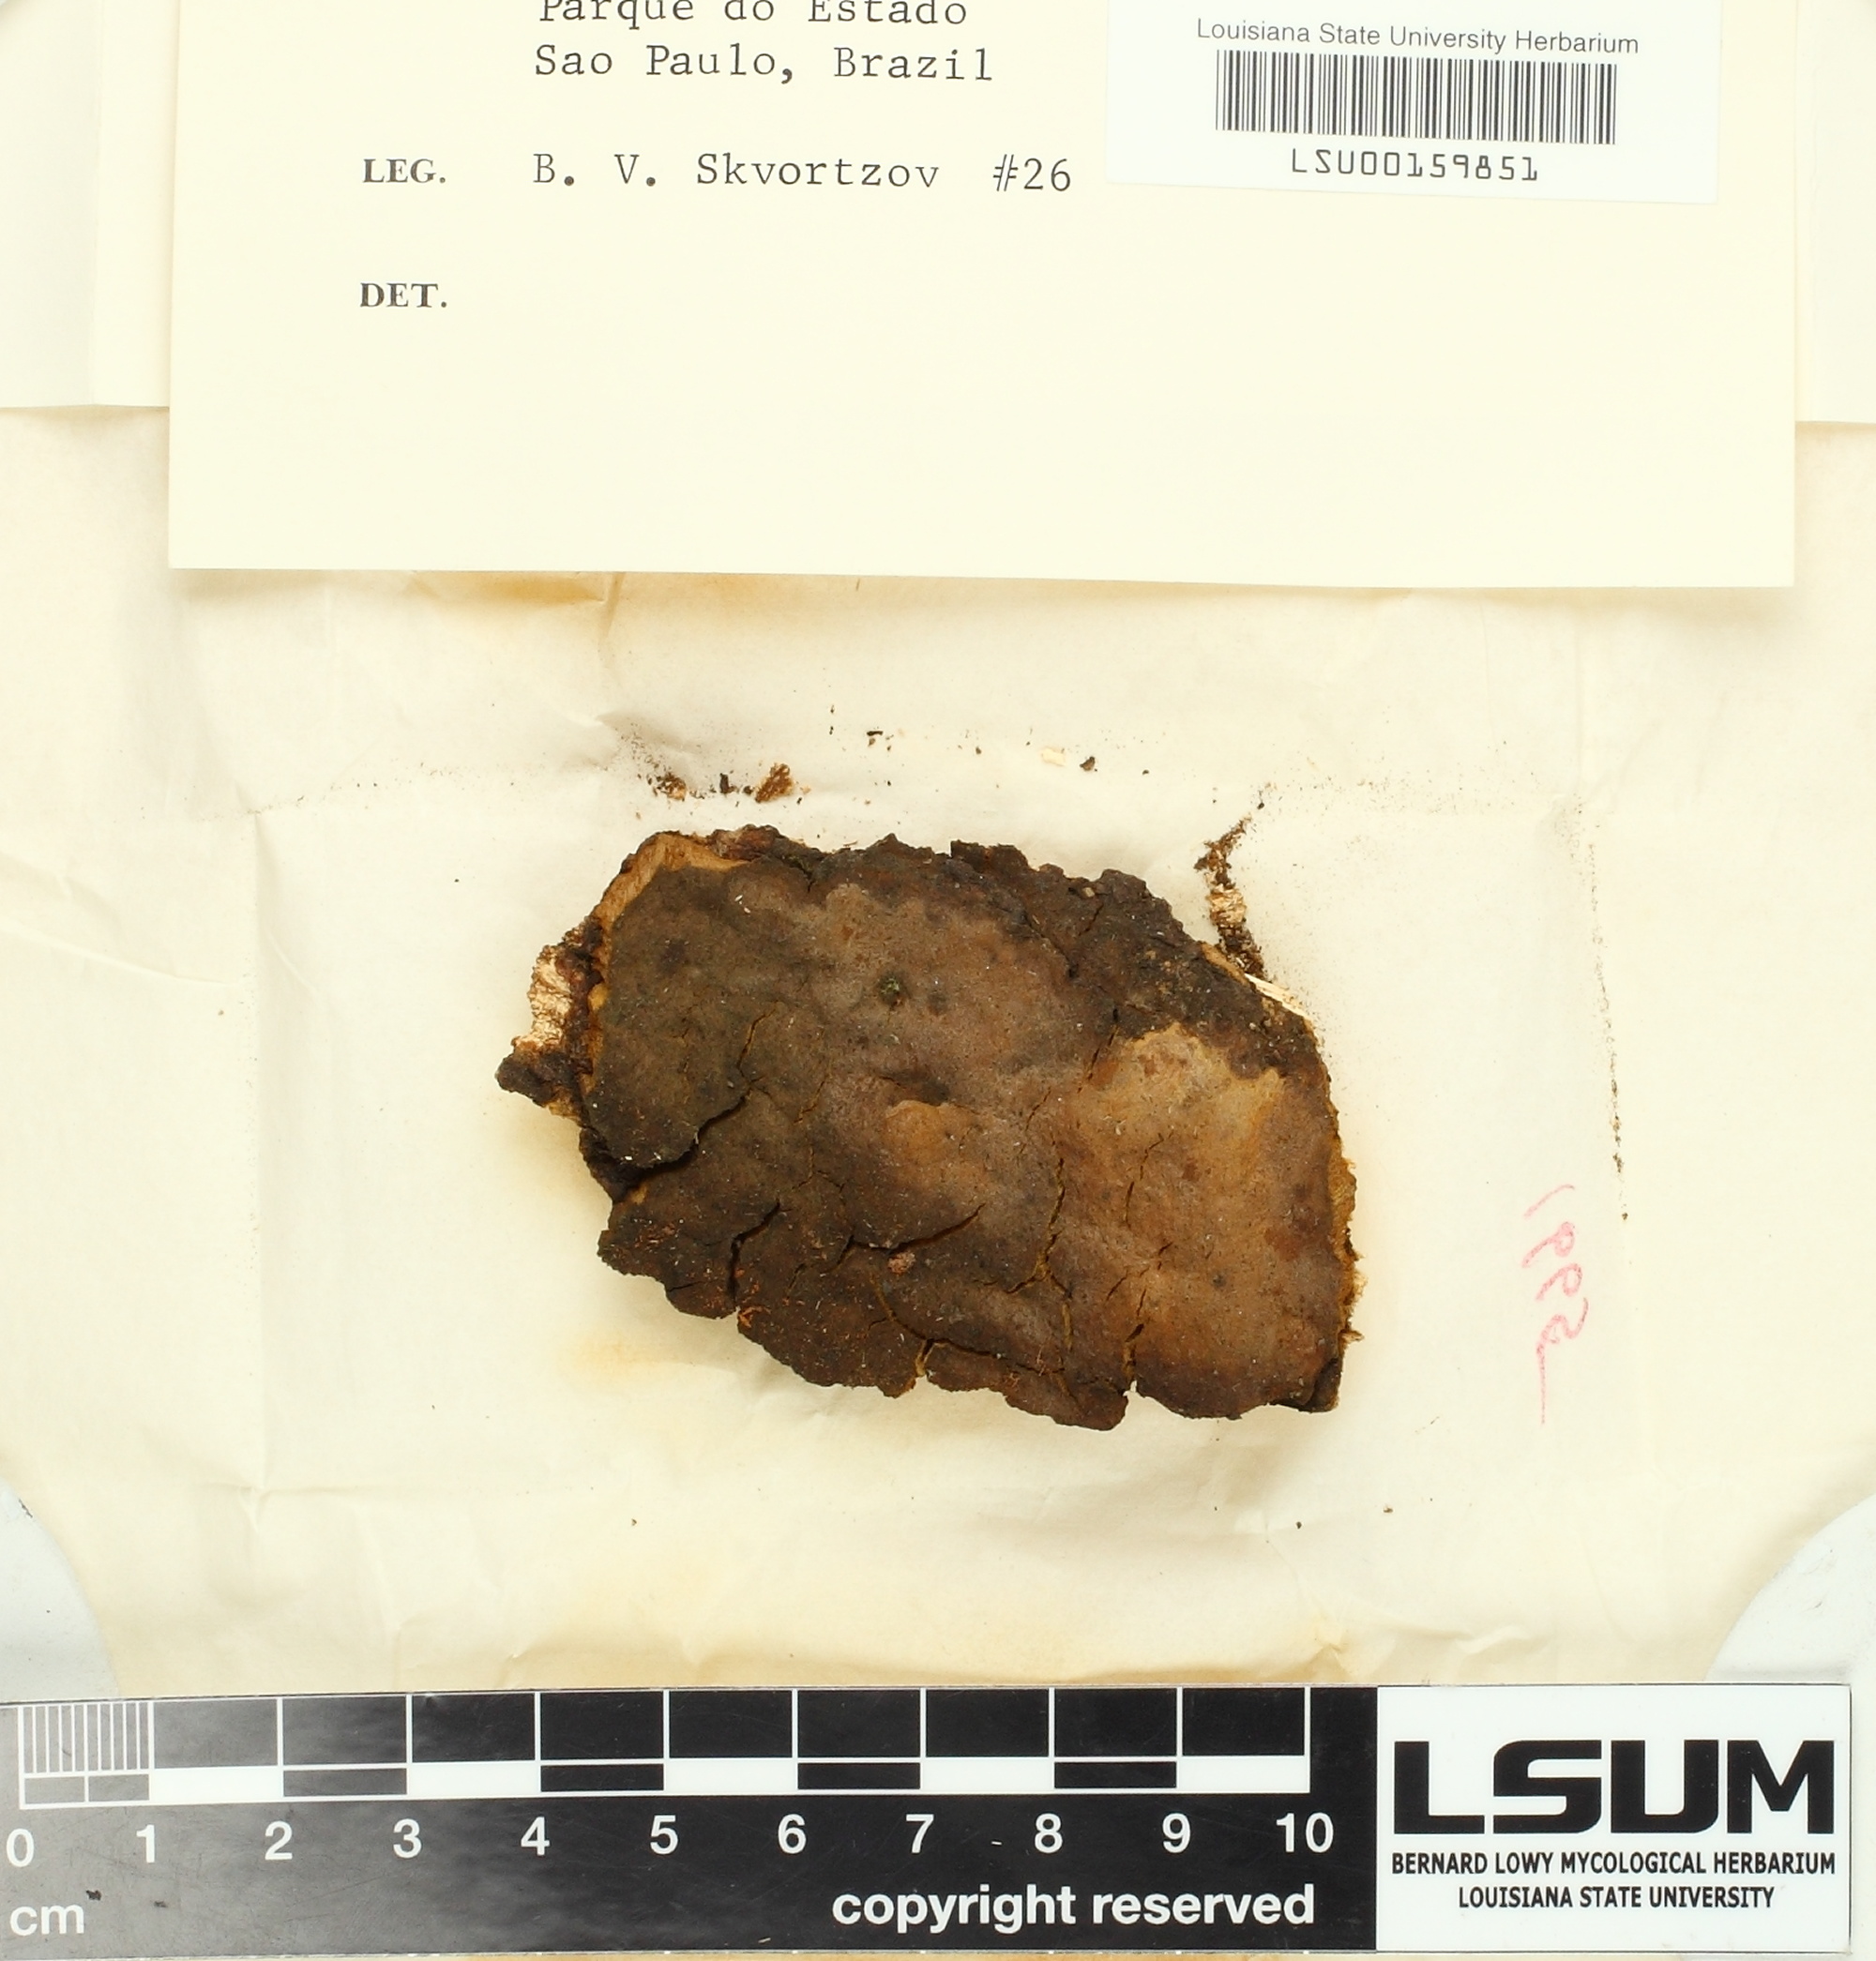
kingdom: Fungi
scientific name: Fungi
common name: Fungi
